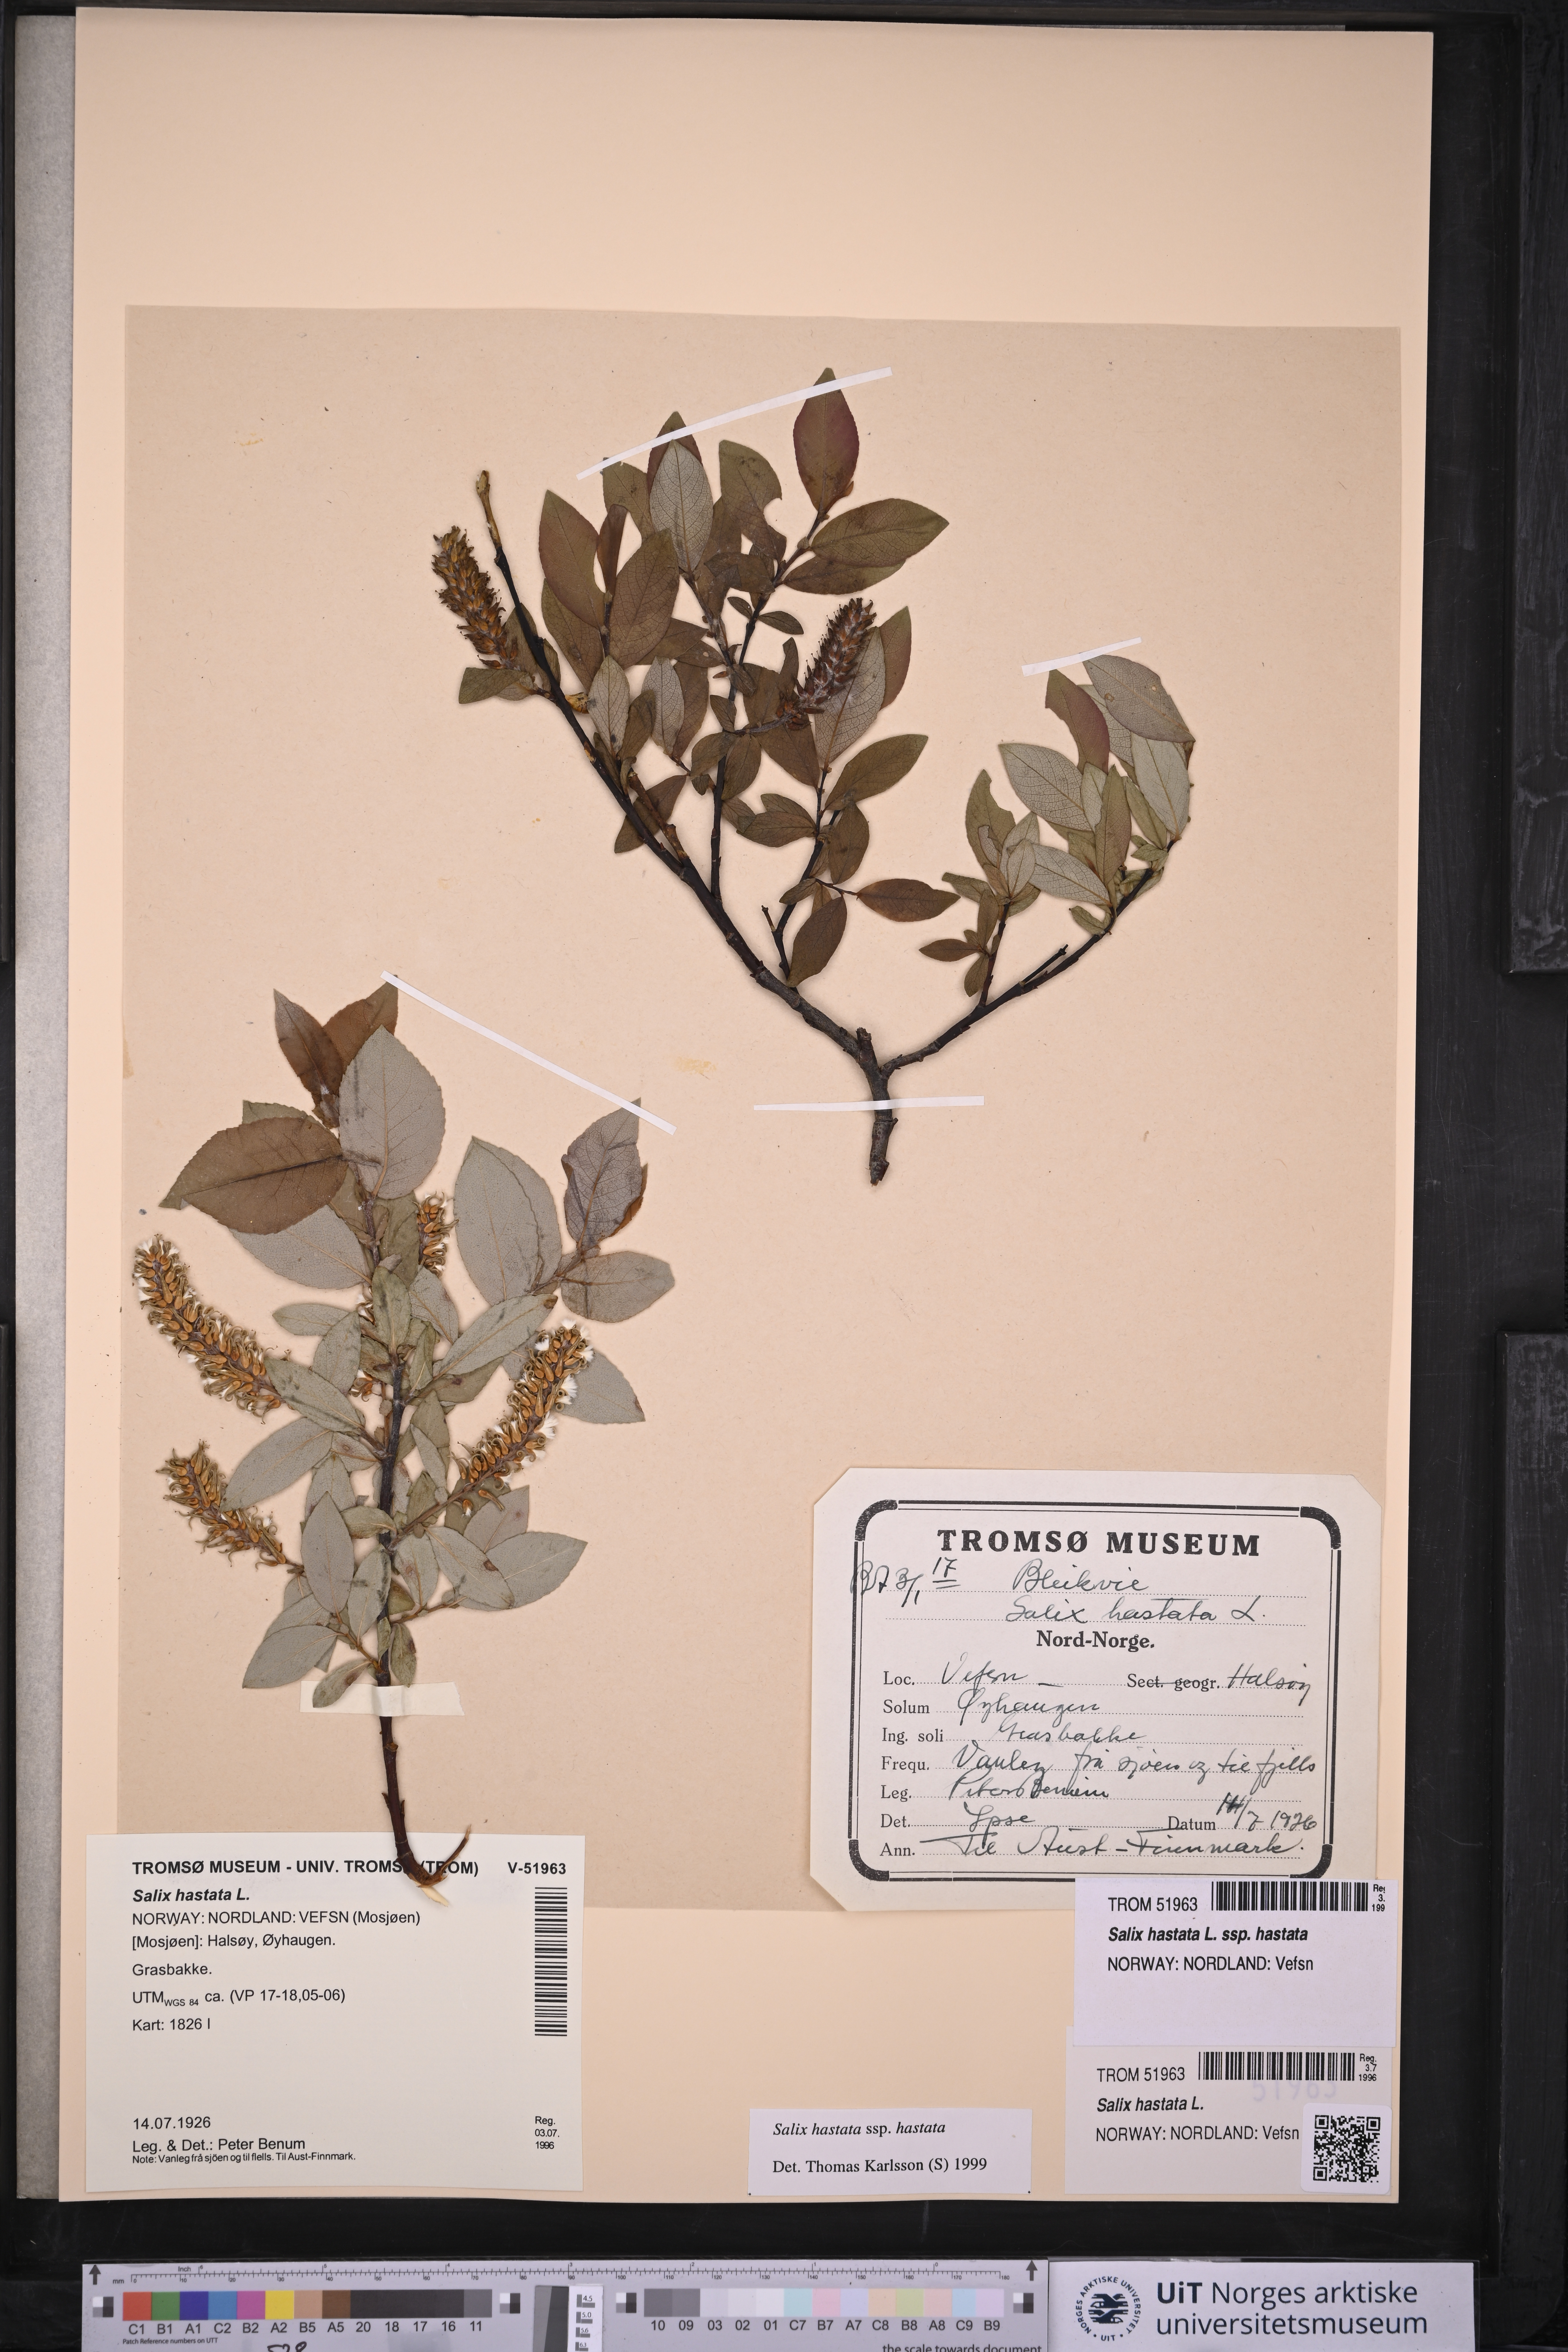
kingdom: Plantae
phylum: Tracheophyta
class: Magnoliopsida
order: Malpighiales
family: Salicaceae
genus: Salix
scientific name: Salix hastata
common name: Halberd willow
